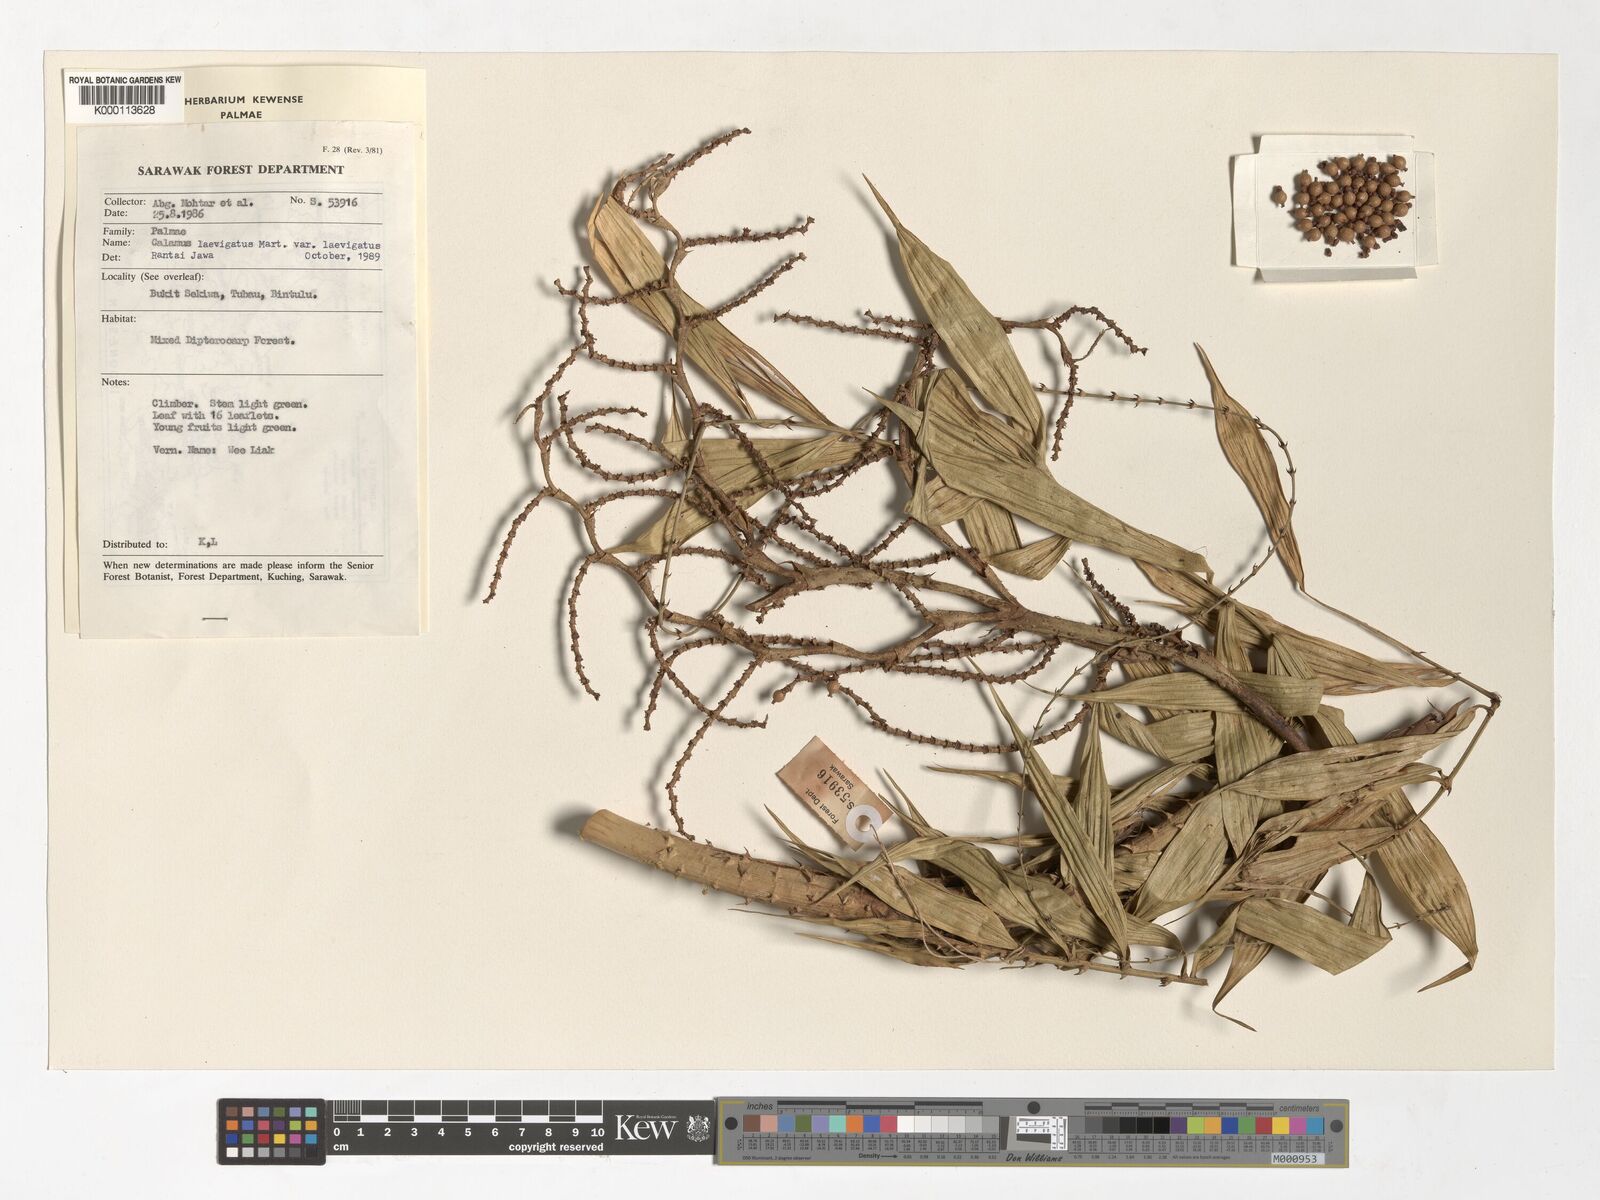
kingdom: Plantae
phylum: Tracheophyta
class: Liliopsida
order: Arecales
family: Arecaceae
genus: Calamus
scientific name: Calamus javensis
